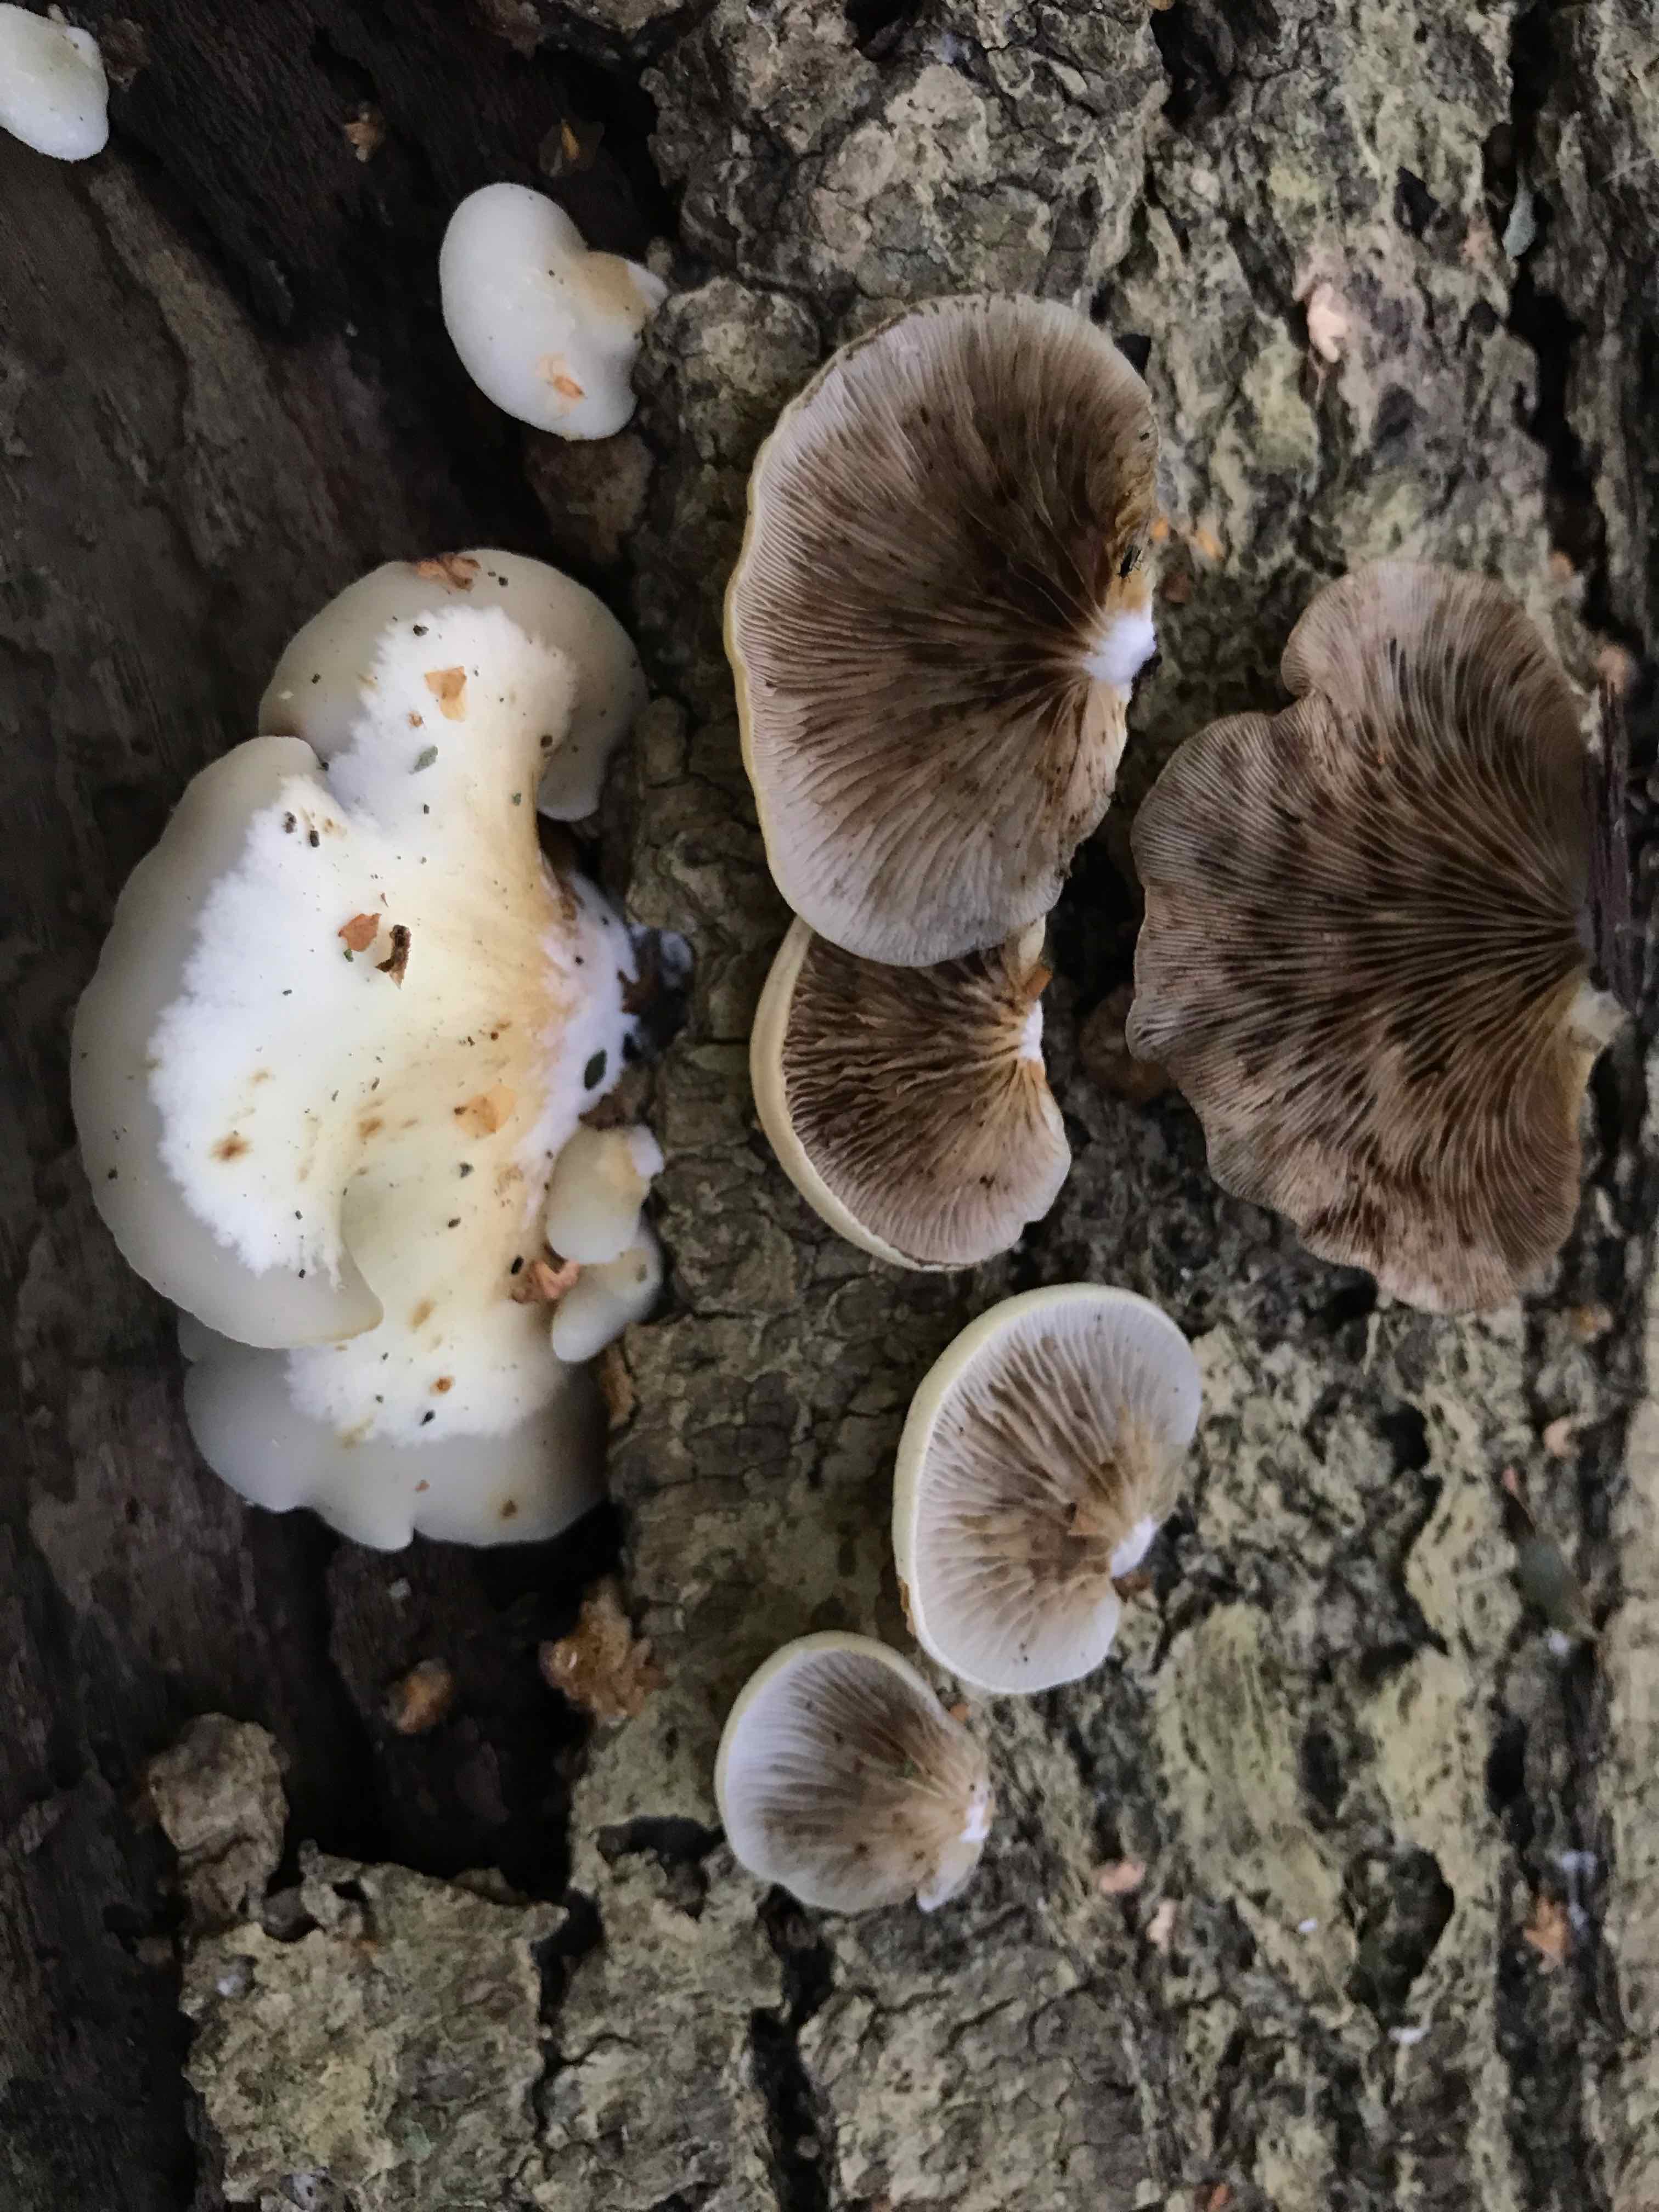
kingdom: Fungi
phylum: Basidiomycota
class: Agaricomycetes
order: Agaricales
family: Crepidotaceae
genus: Crepidotus
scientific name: Crepidotus mollis
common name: blød muslingesvamp
